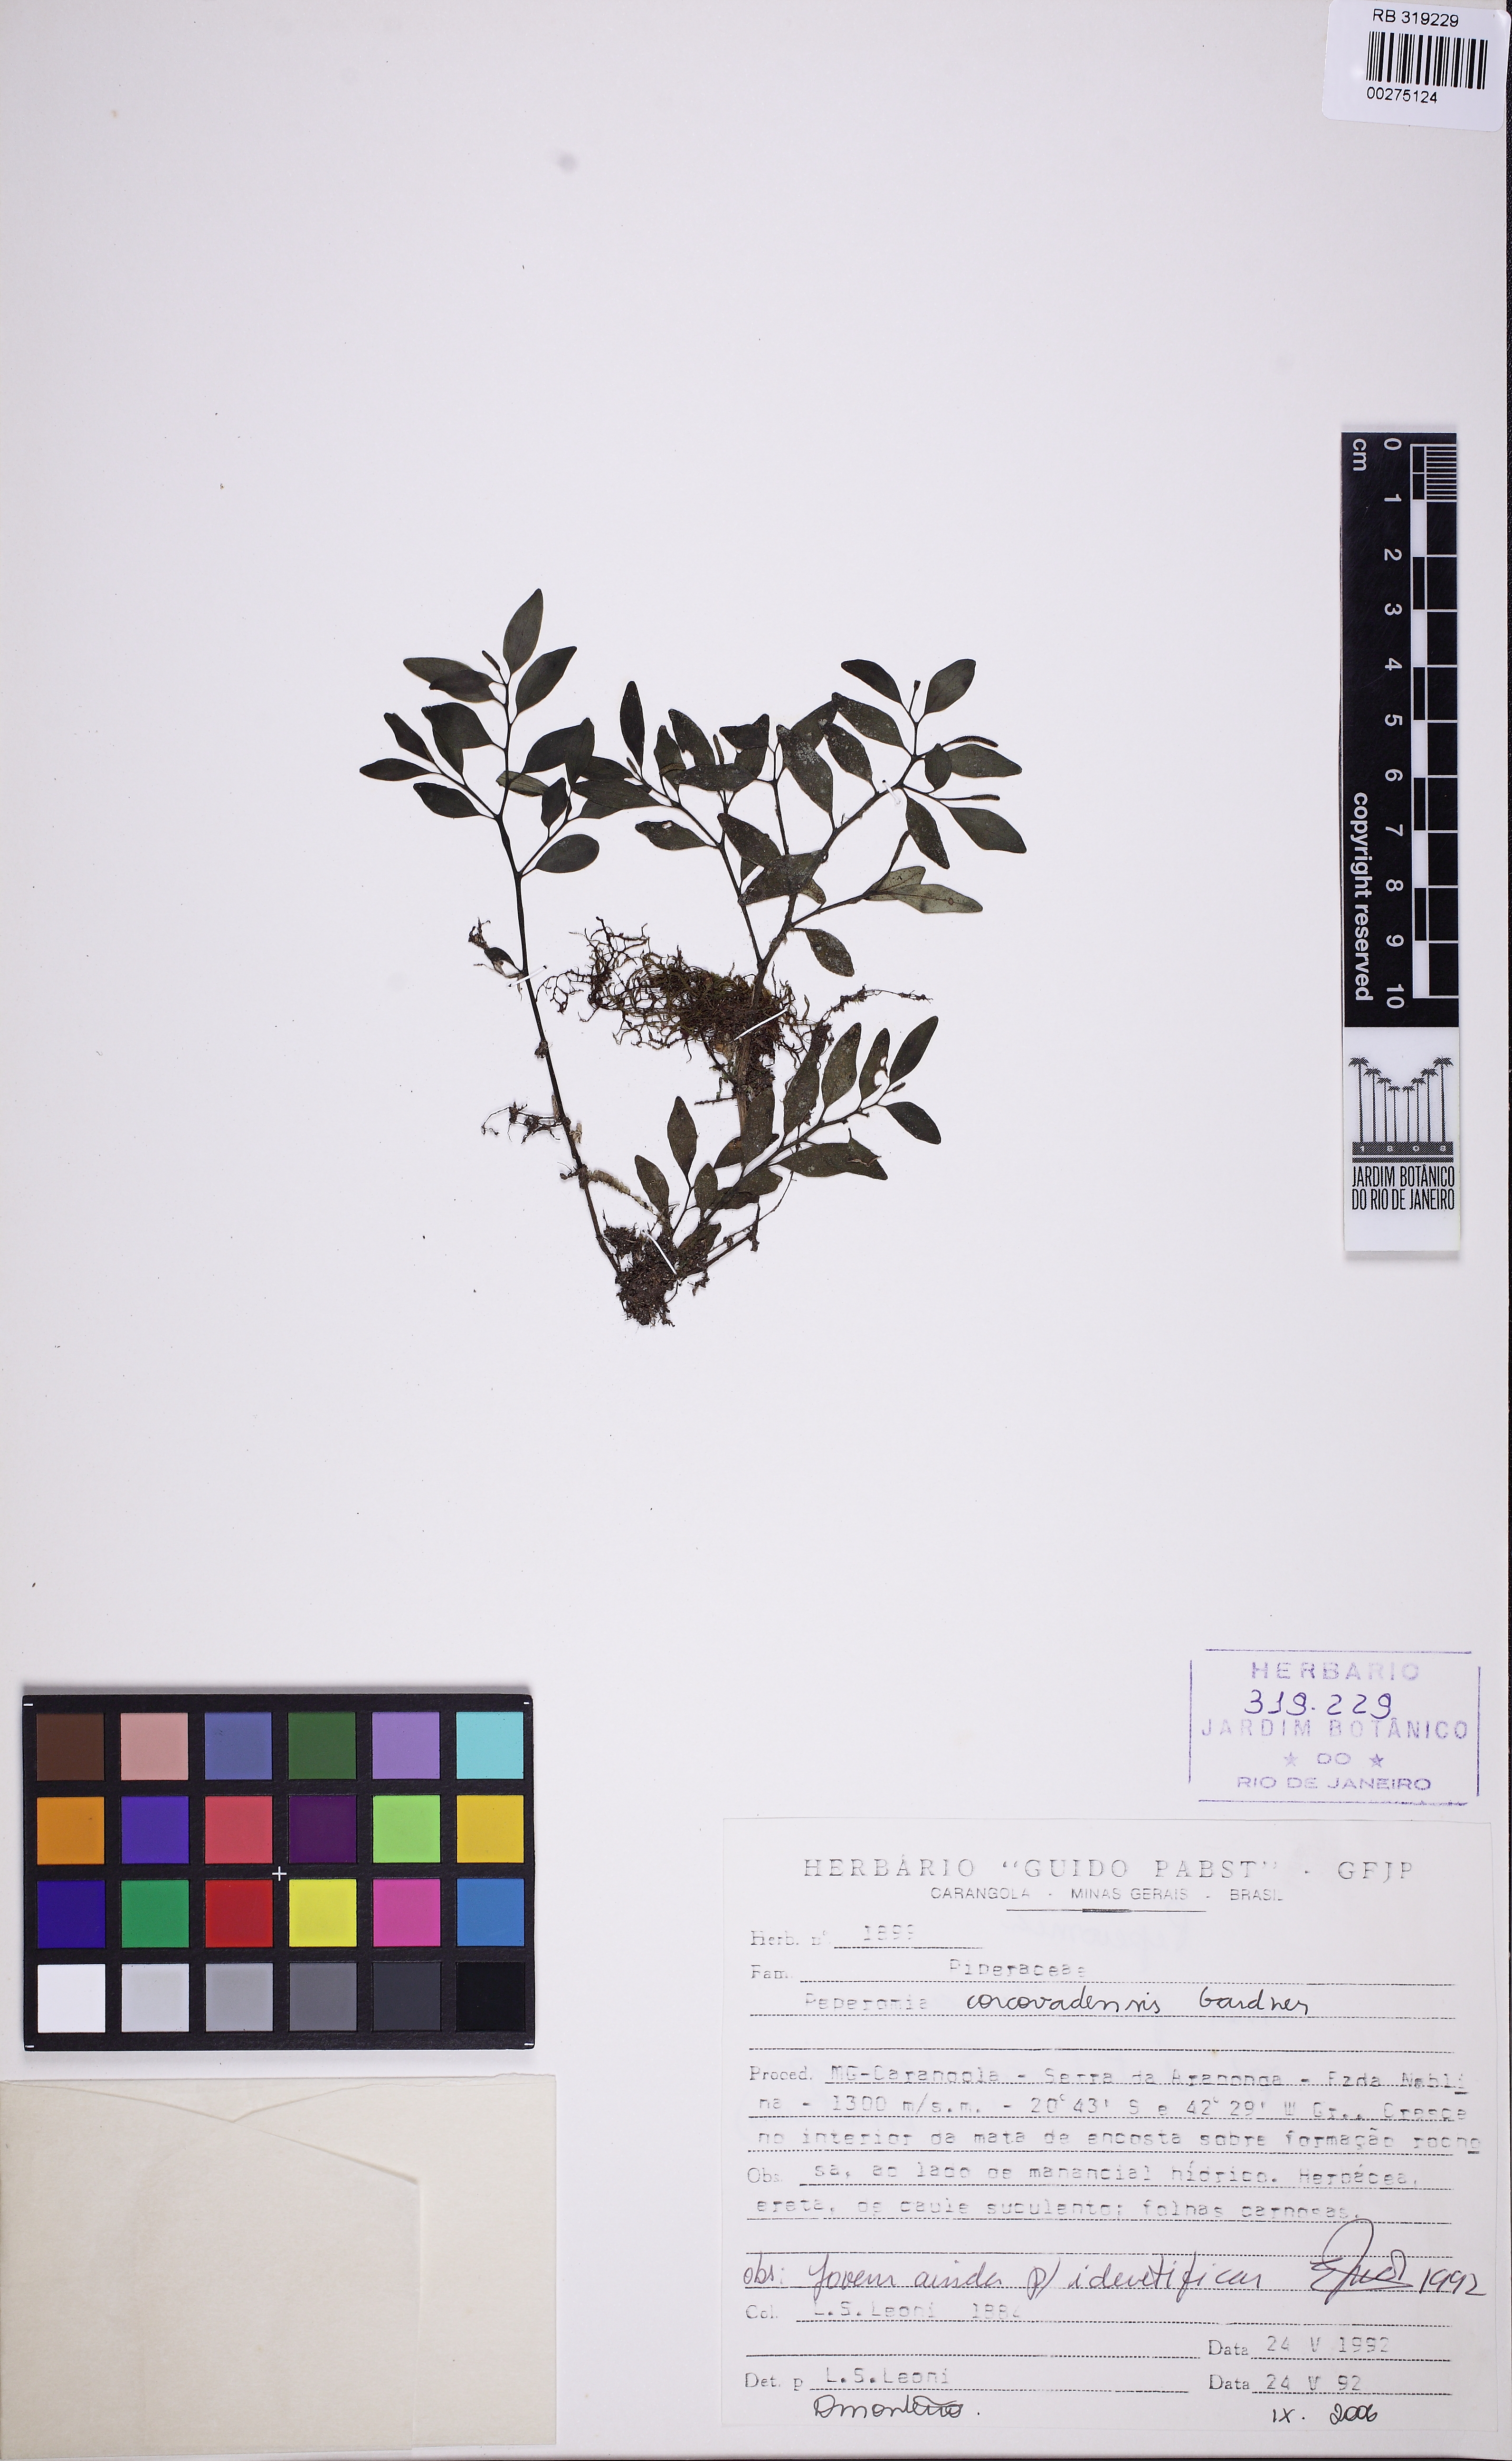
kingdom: Plantae
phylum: Tracheophyta
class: Magnoliopsida
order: Piperales
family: Piperaceae
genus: Peperomia
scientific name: Peperomia corcovadensis
